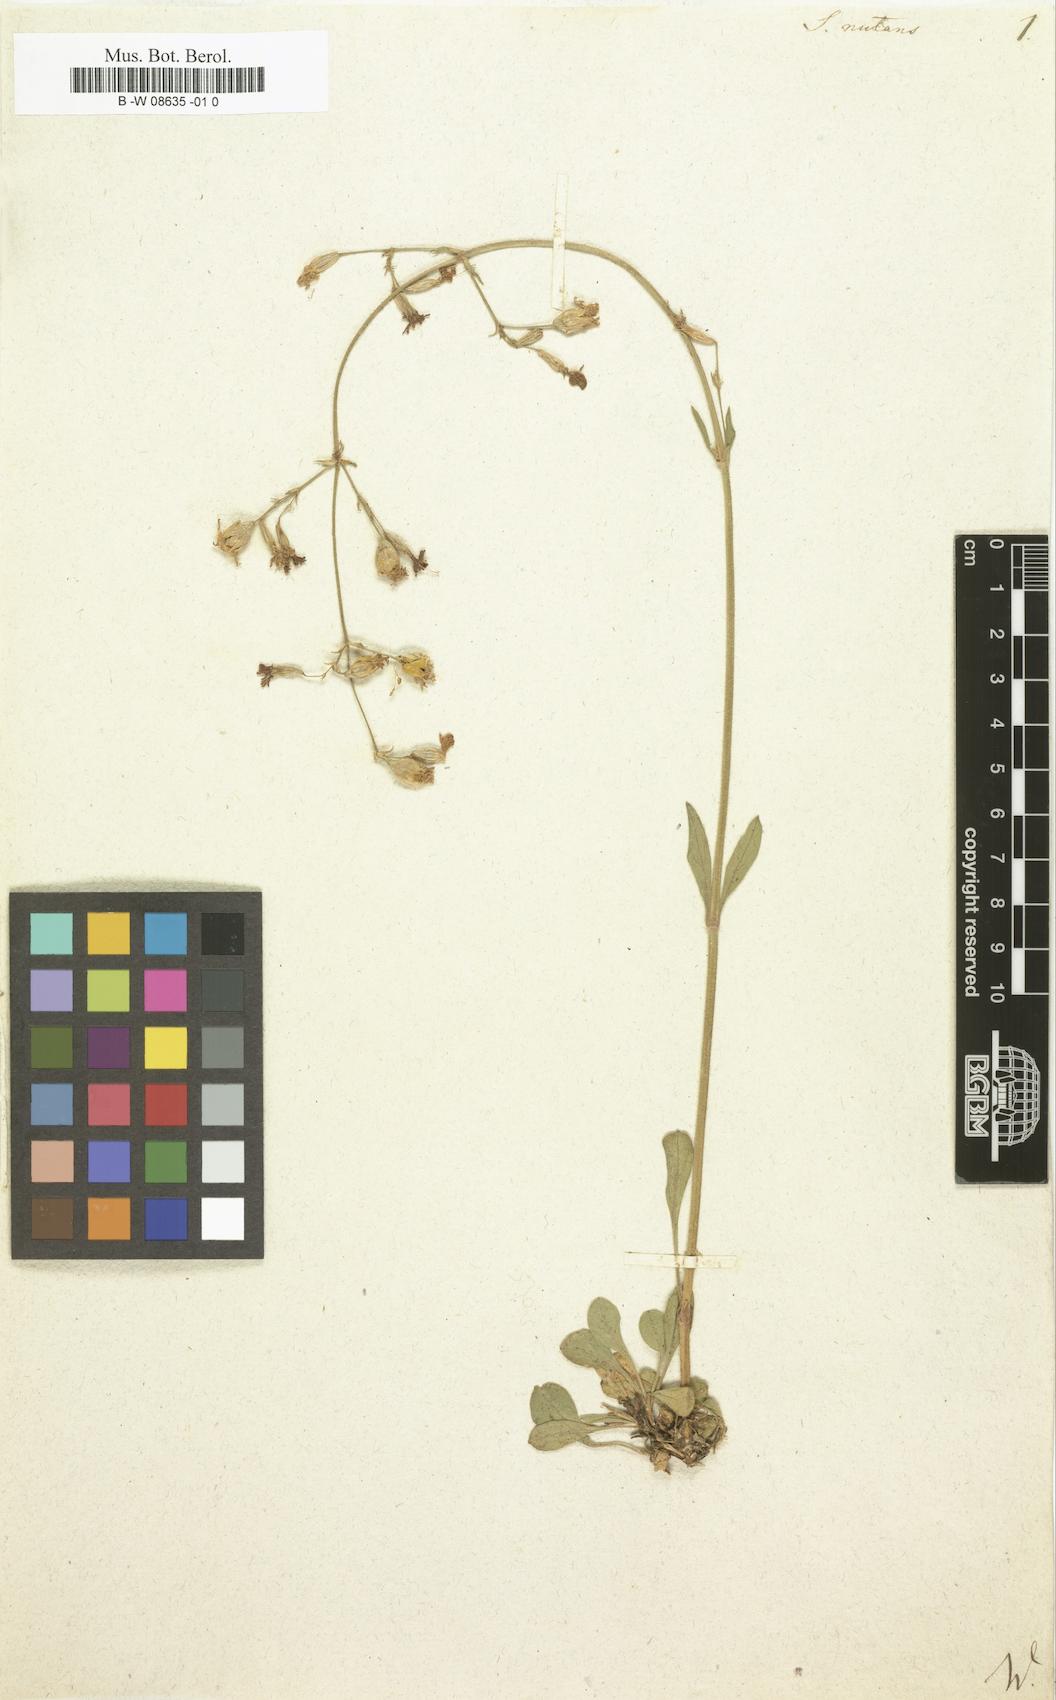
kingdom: Plantae
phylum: Tracheophyta
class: Magnoliopsida
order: Caryophyllales
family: Caryophyllaceae
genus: Silene
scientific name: Silene nutans
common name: Nottingham catchfly
